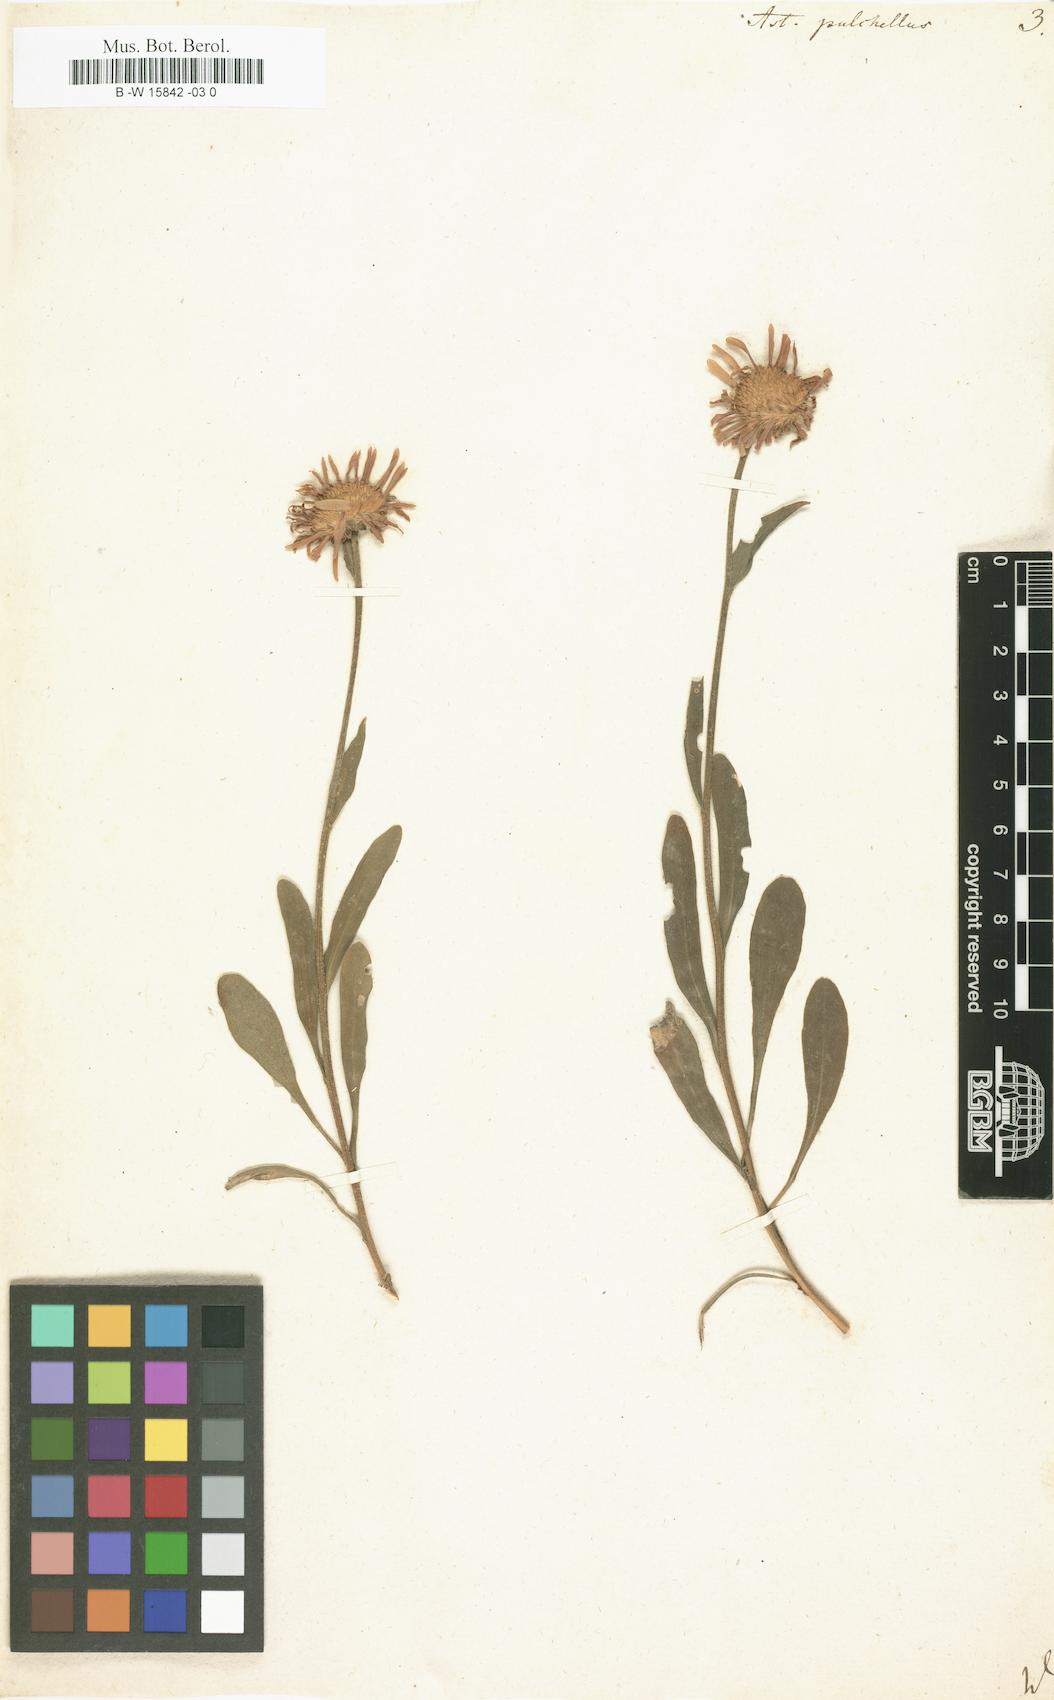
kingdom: Plantae
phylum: Tracheophyta
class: Magnoliopsida
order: Asterales
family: Asteraceae
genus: Erigeron
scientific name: Erigeron caucasicus
